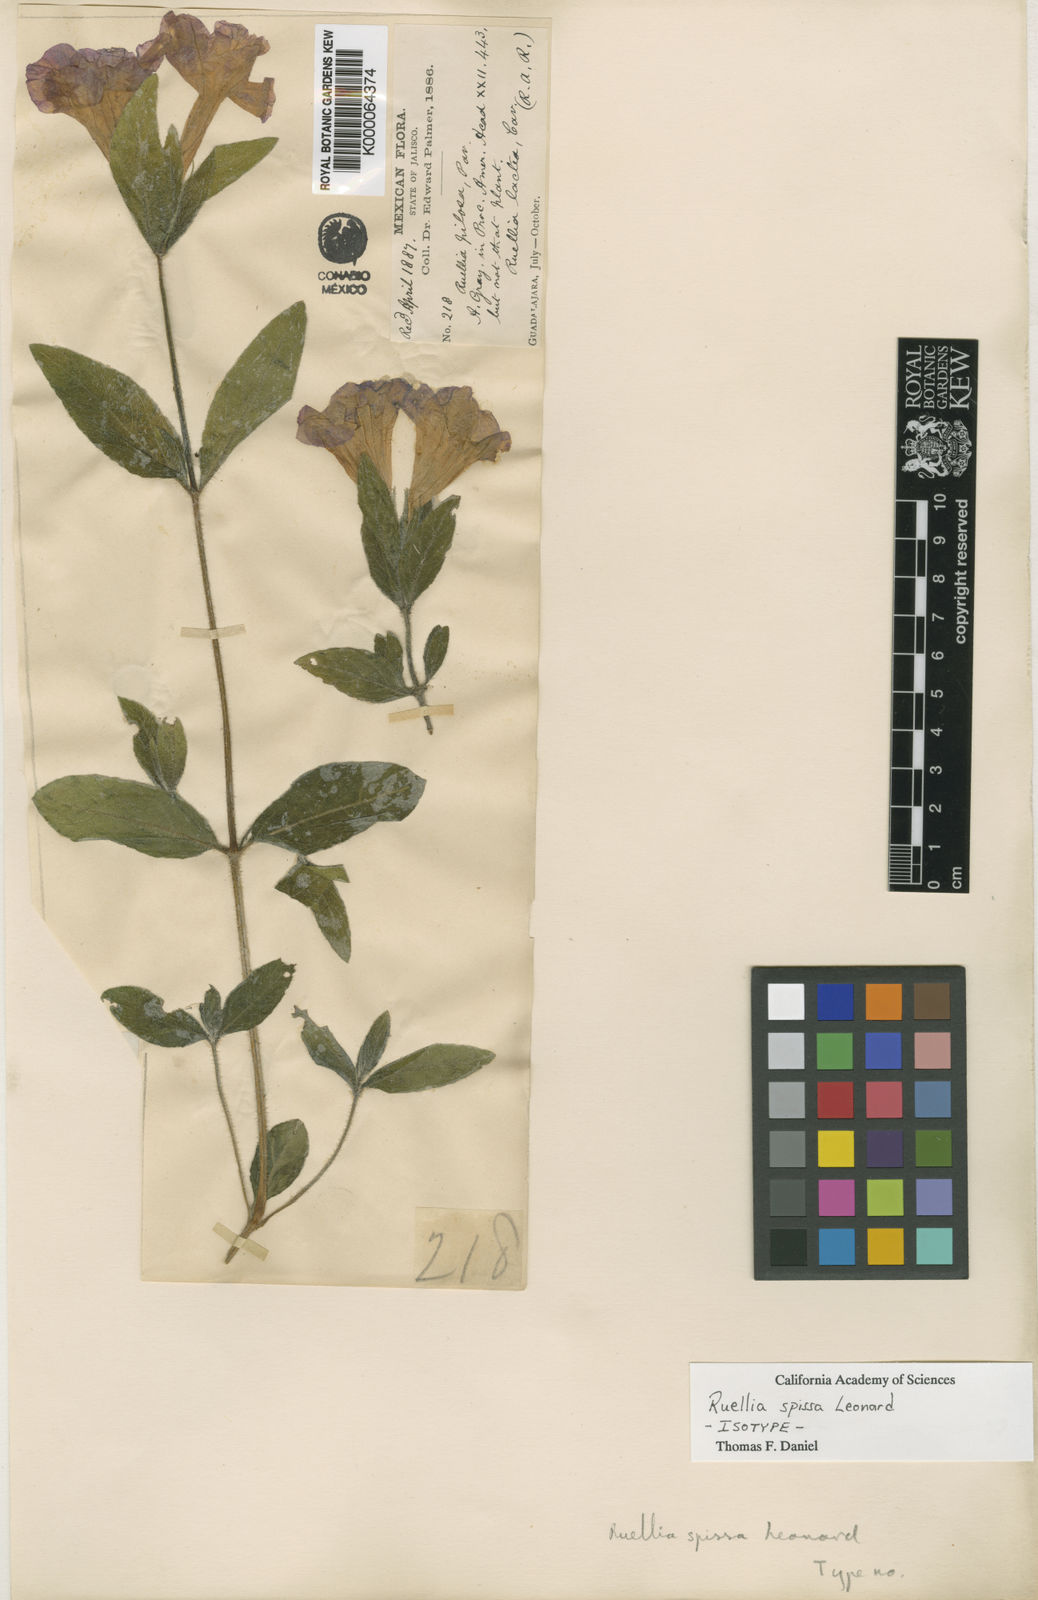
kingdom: Plantae
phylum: Tracheophyta
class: Magnoliopsida
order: Lamiales
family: Acanthaceae
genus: Ruellia
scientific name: Ruellia spissa
